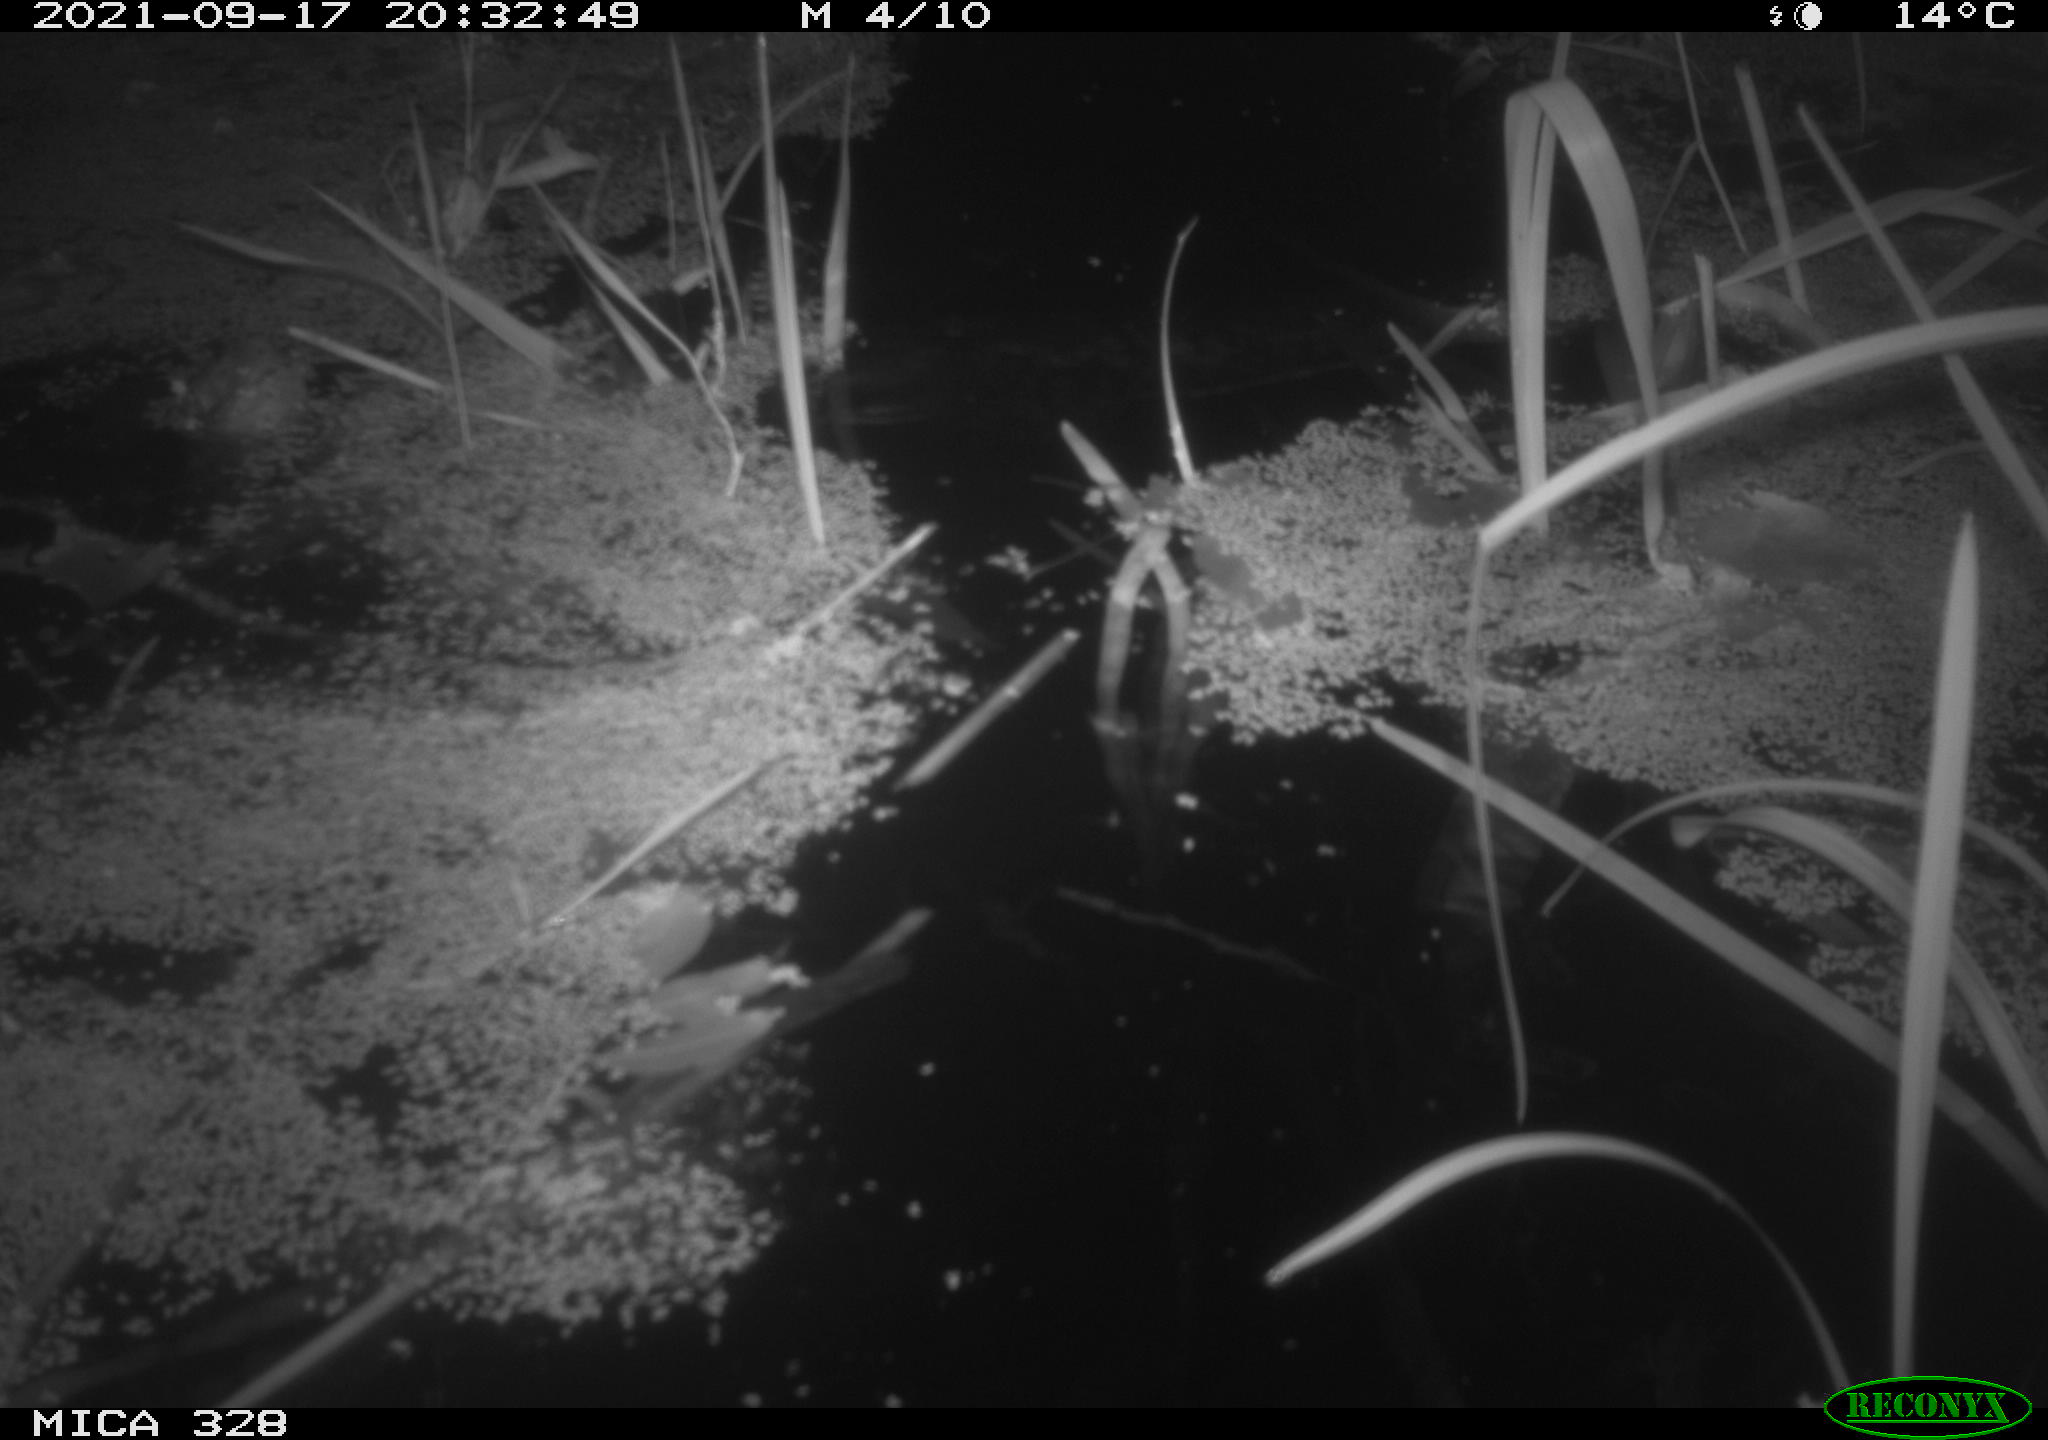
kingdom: Animalia
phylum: Chordata
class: Mammalia
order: Rodentia
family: Cricetidae
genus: Ondatra
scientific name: Ondatra zibethicus
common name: Muskrat
